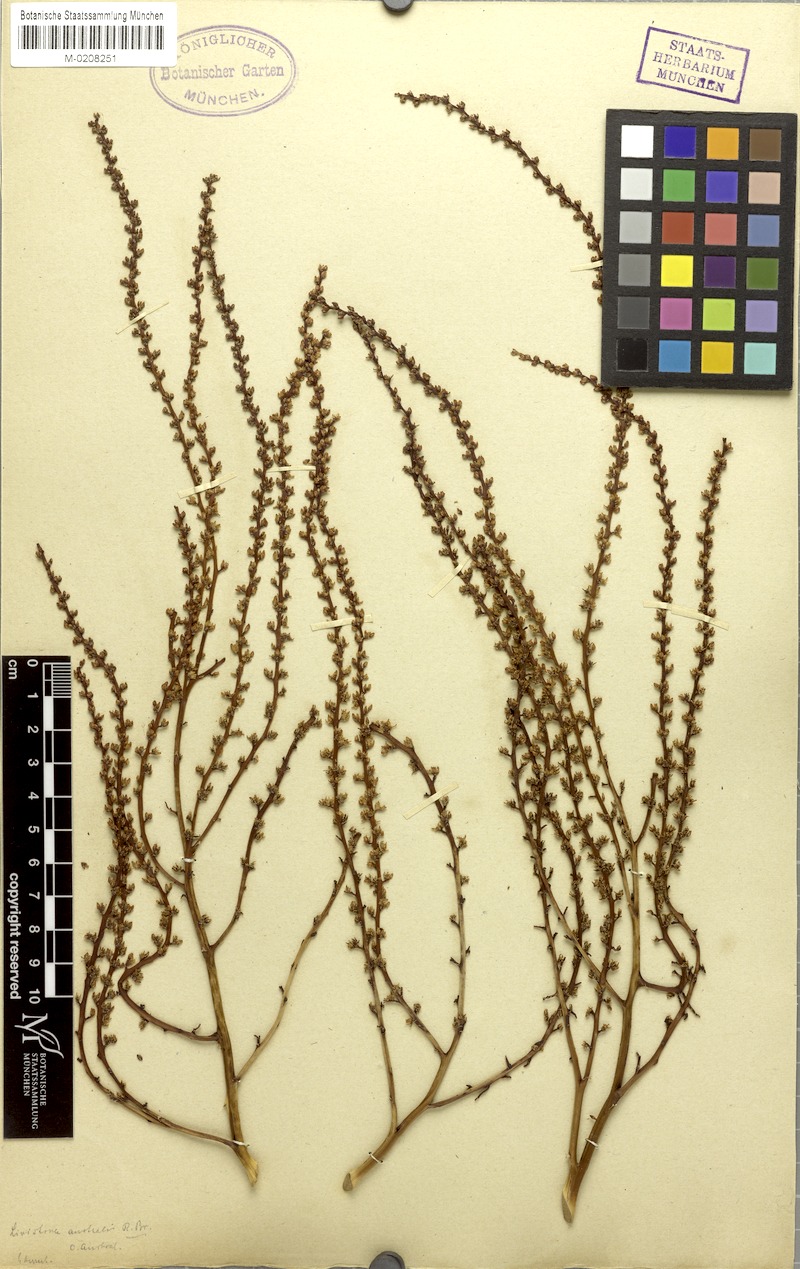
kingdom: Plantae
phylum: Tracheophyta
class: Liliopsida
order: Arecales
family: Arecaceae
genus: Livistona
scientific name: Livistona australis
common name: Cabbage fan palm
